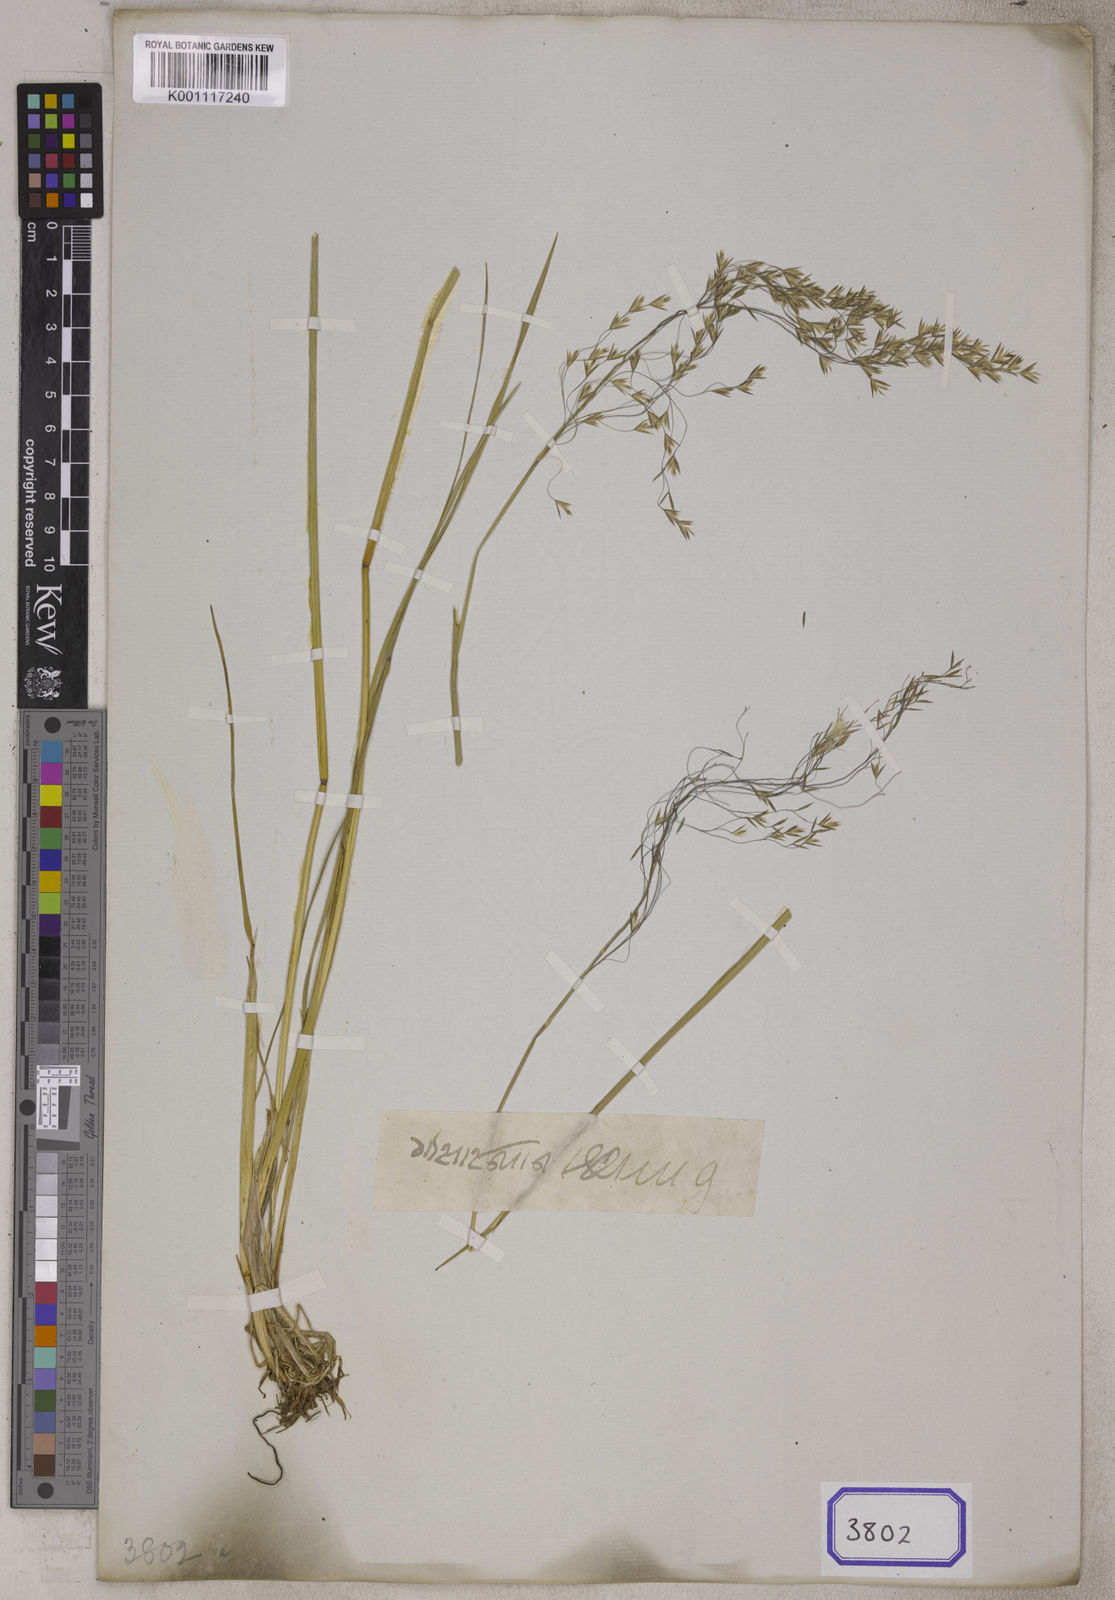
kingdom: Plantae
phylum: Tracheophyta
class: Liliopsida
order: Poales
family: Poaceae
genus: Deschampsia
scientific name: Deschampsia
